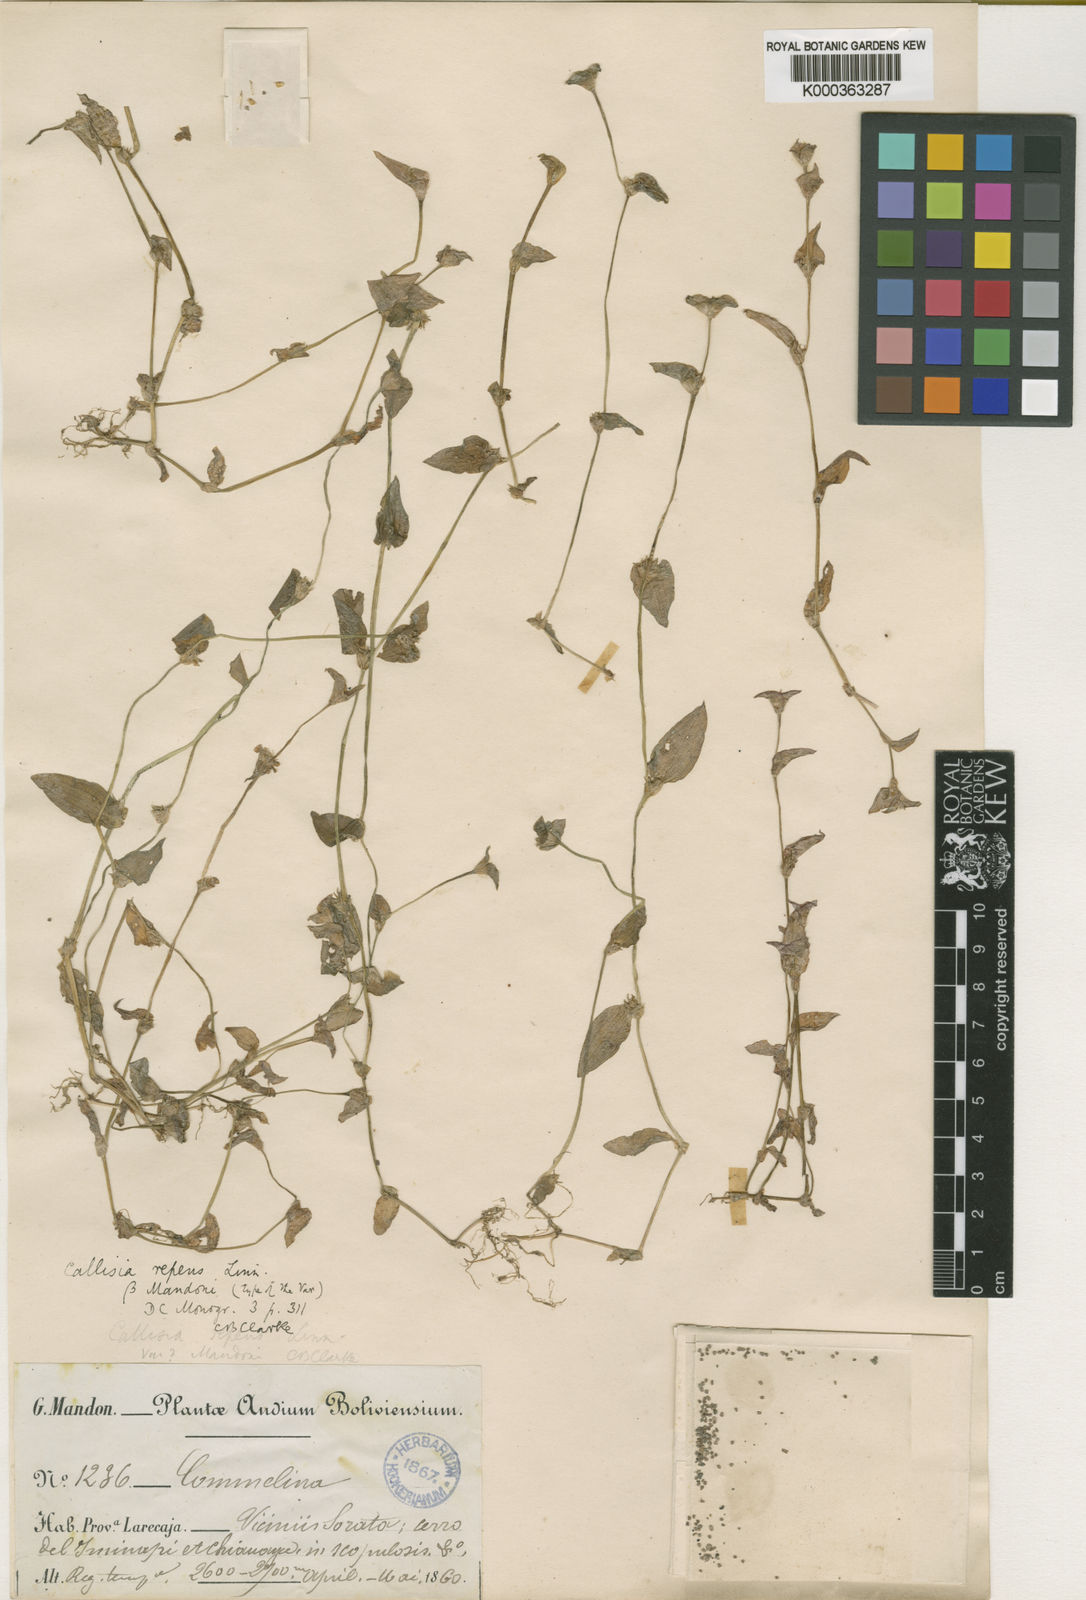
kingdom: Plantae
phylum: Tracheophyta
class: Liliopsida
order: Commelinales
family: Commelinaceae
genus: Callisia
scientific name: Callisia repens
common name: Creeping inchplant
